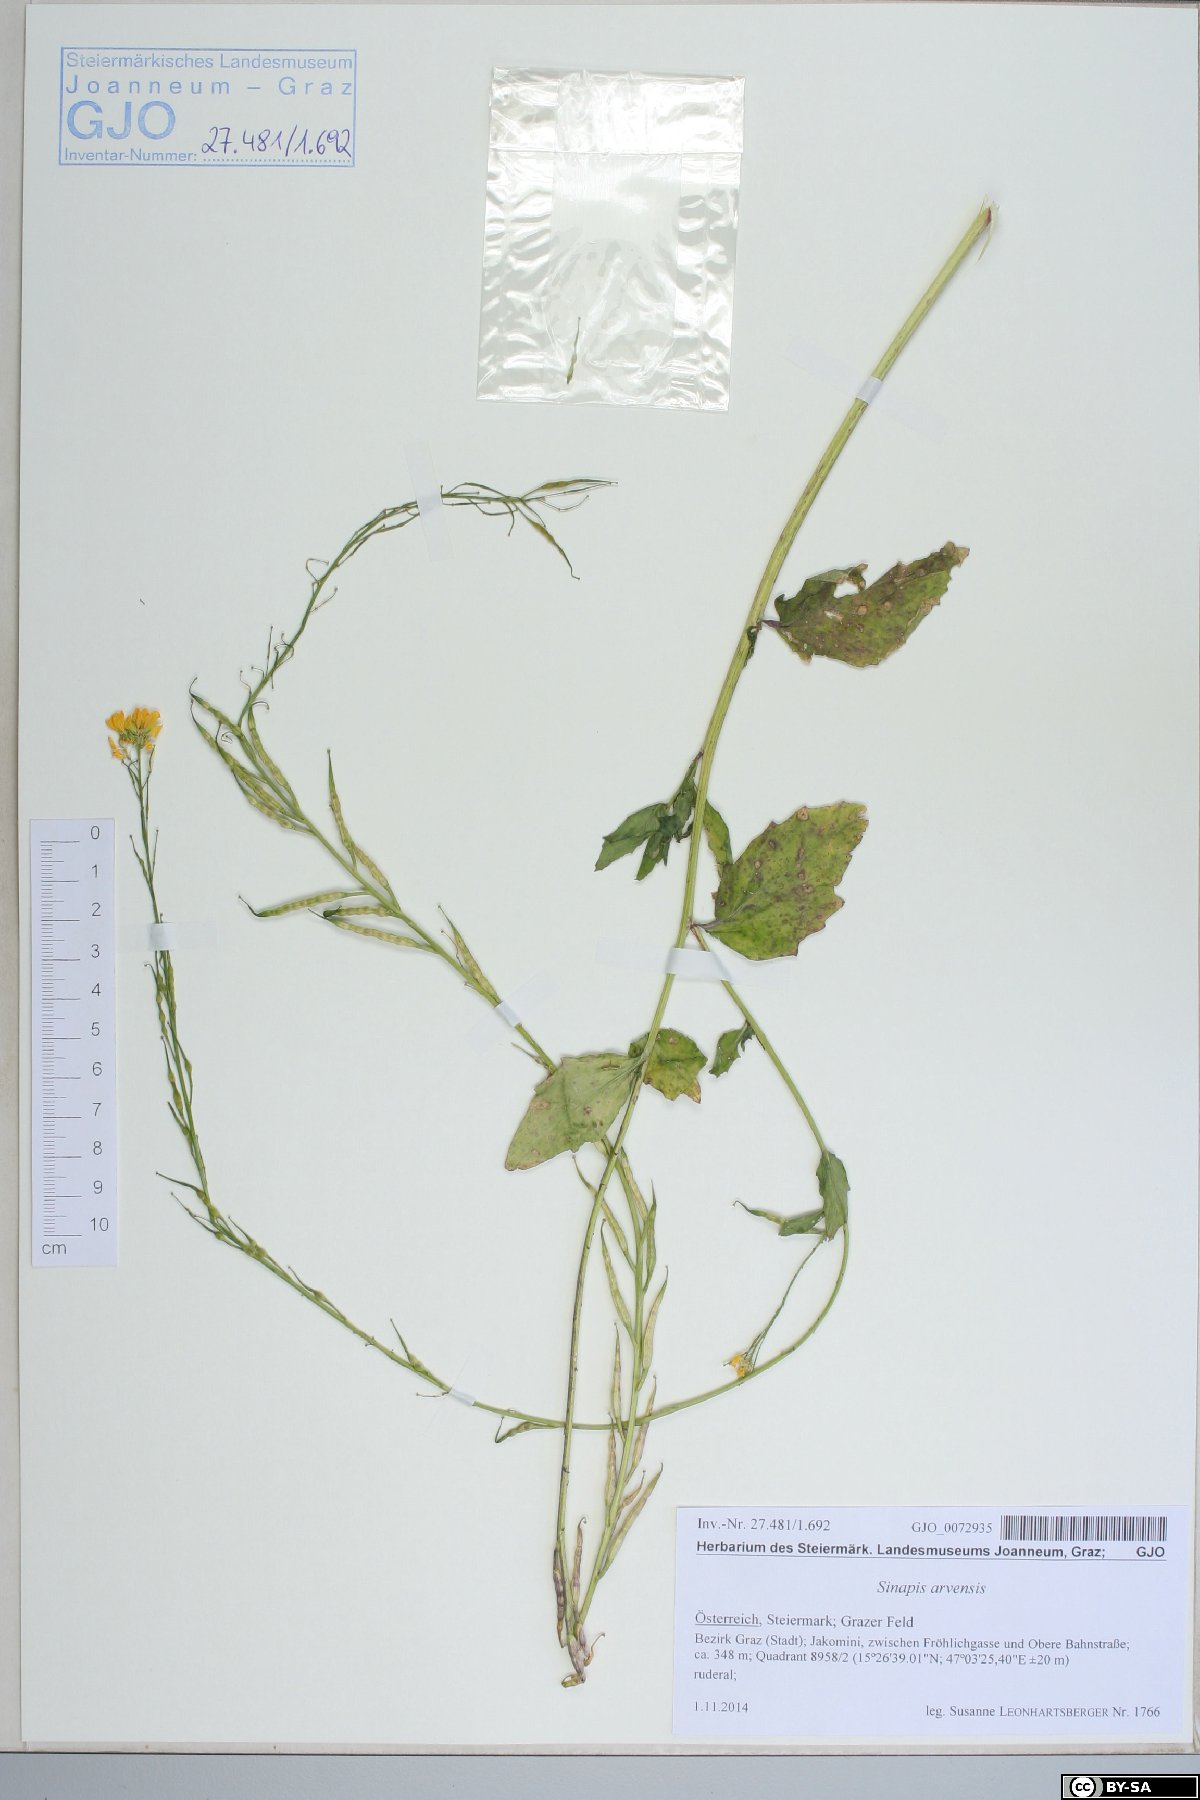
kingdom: Plantae
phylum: Tracheophyta
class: Magnoliopsida
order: Brassicales
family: Brassicaceae
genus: Sinapis
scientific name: Sinapis arvensis
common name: Charlock
